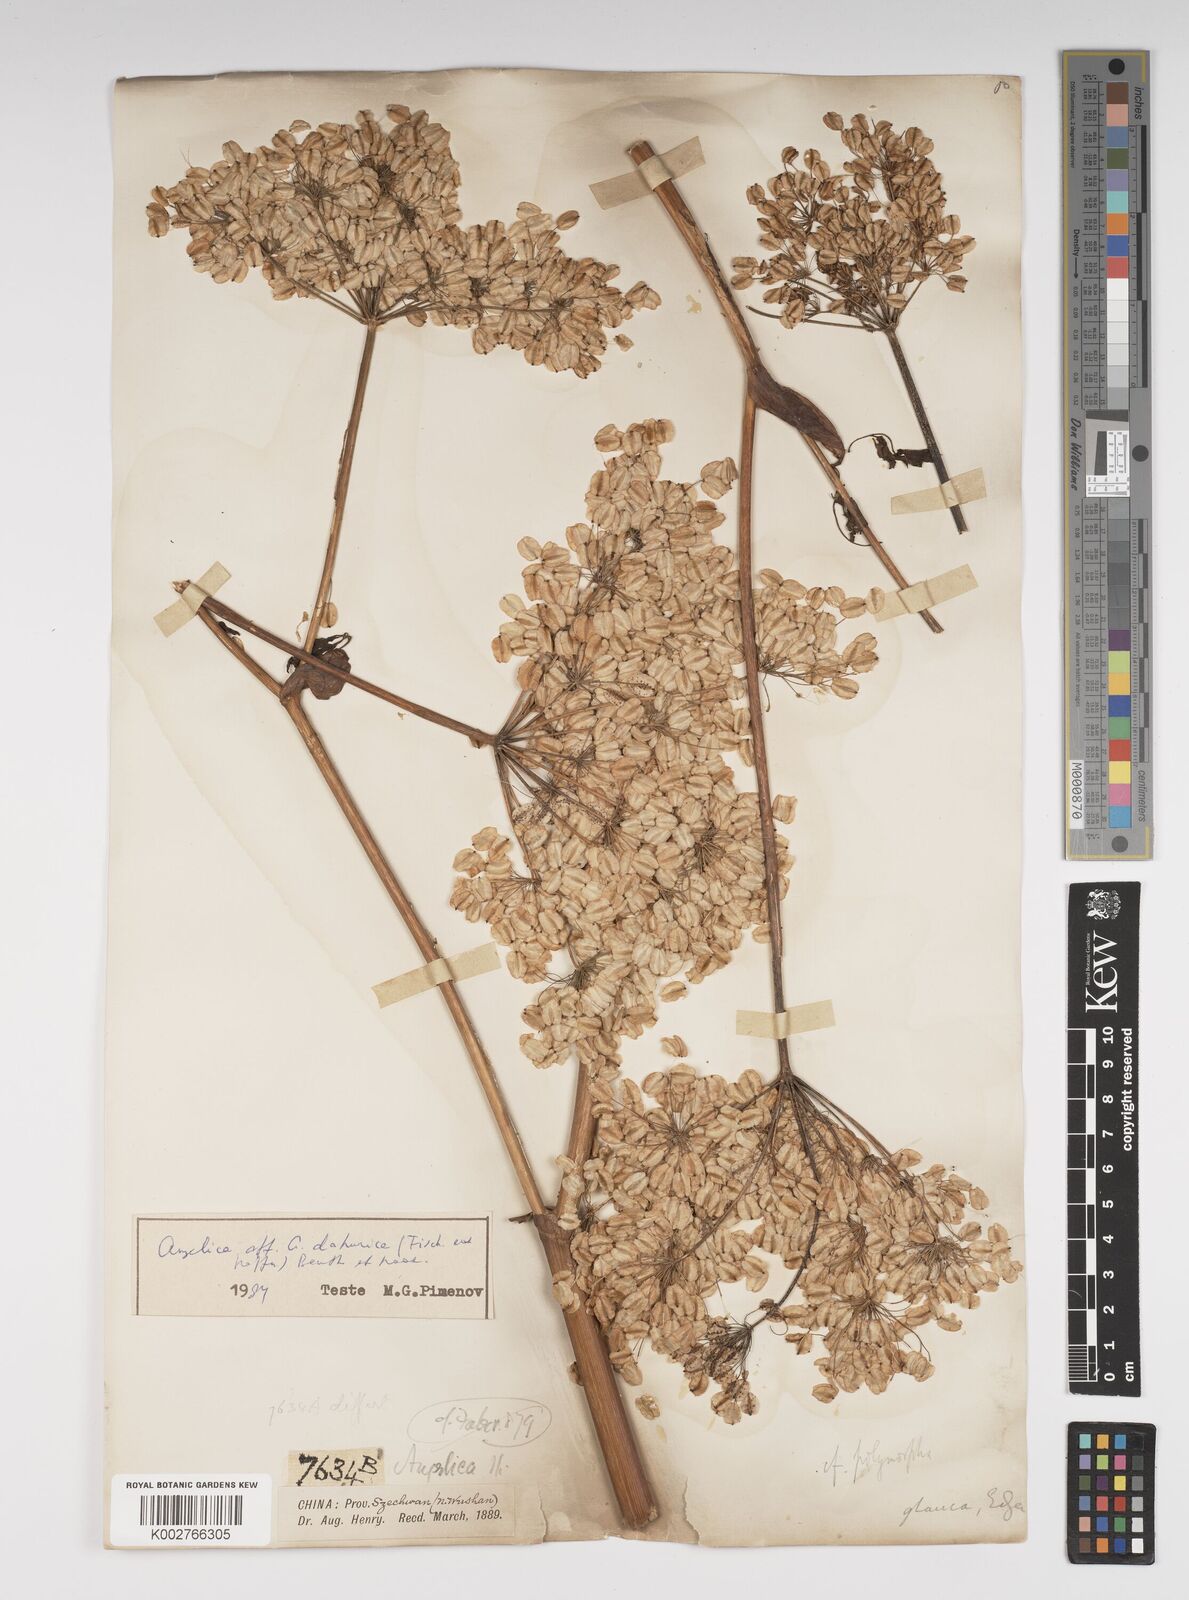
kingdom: Plantae
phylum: Tracheophyta
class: Magnoliopsida
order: Apiales
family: Apiaceae
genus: Angelica
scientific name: Angelica glauca
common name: Smooth angelica
